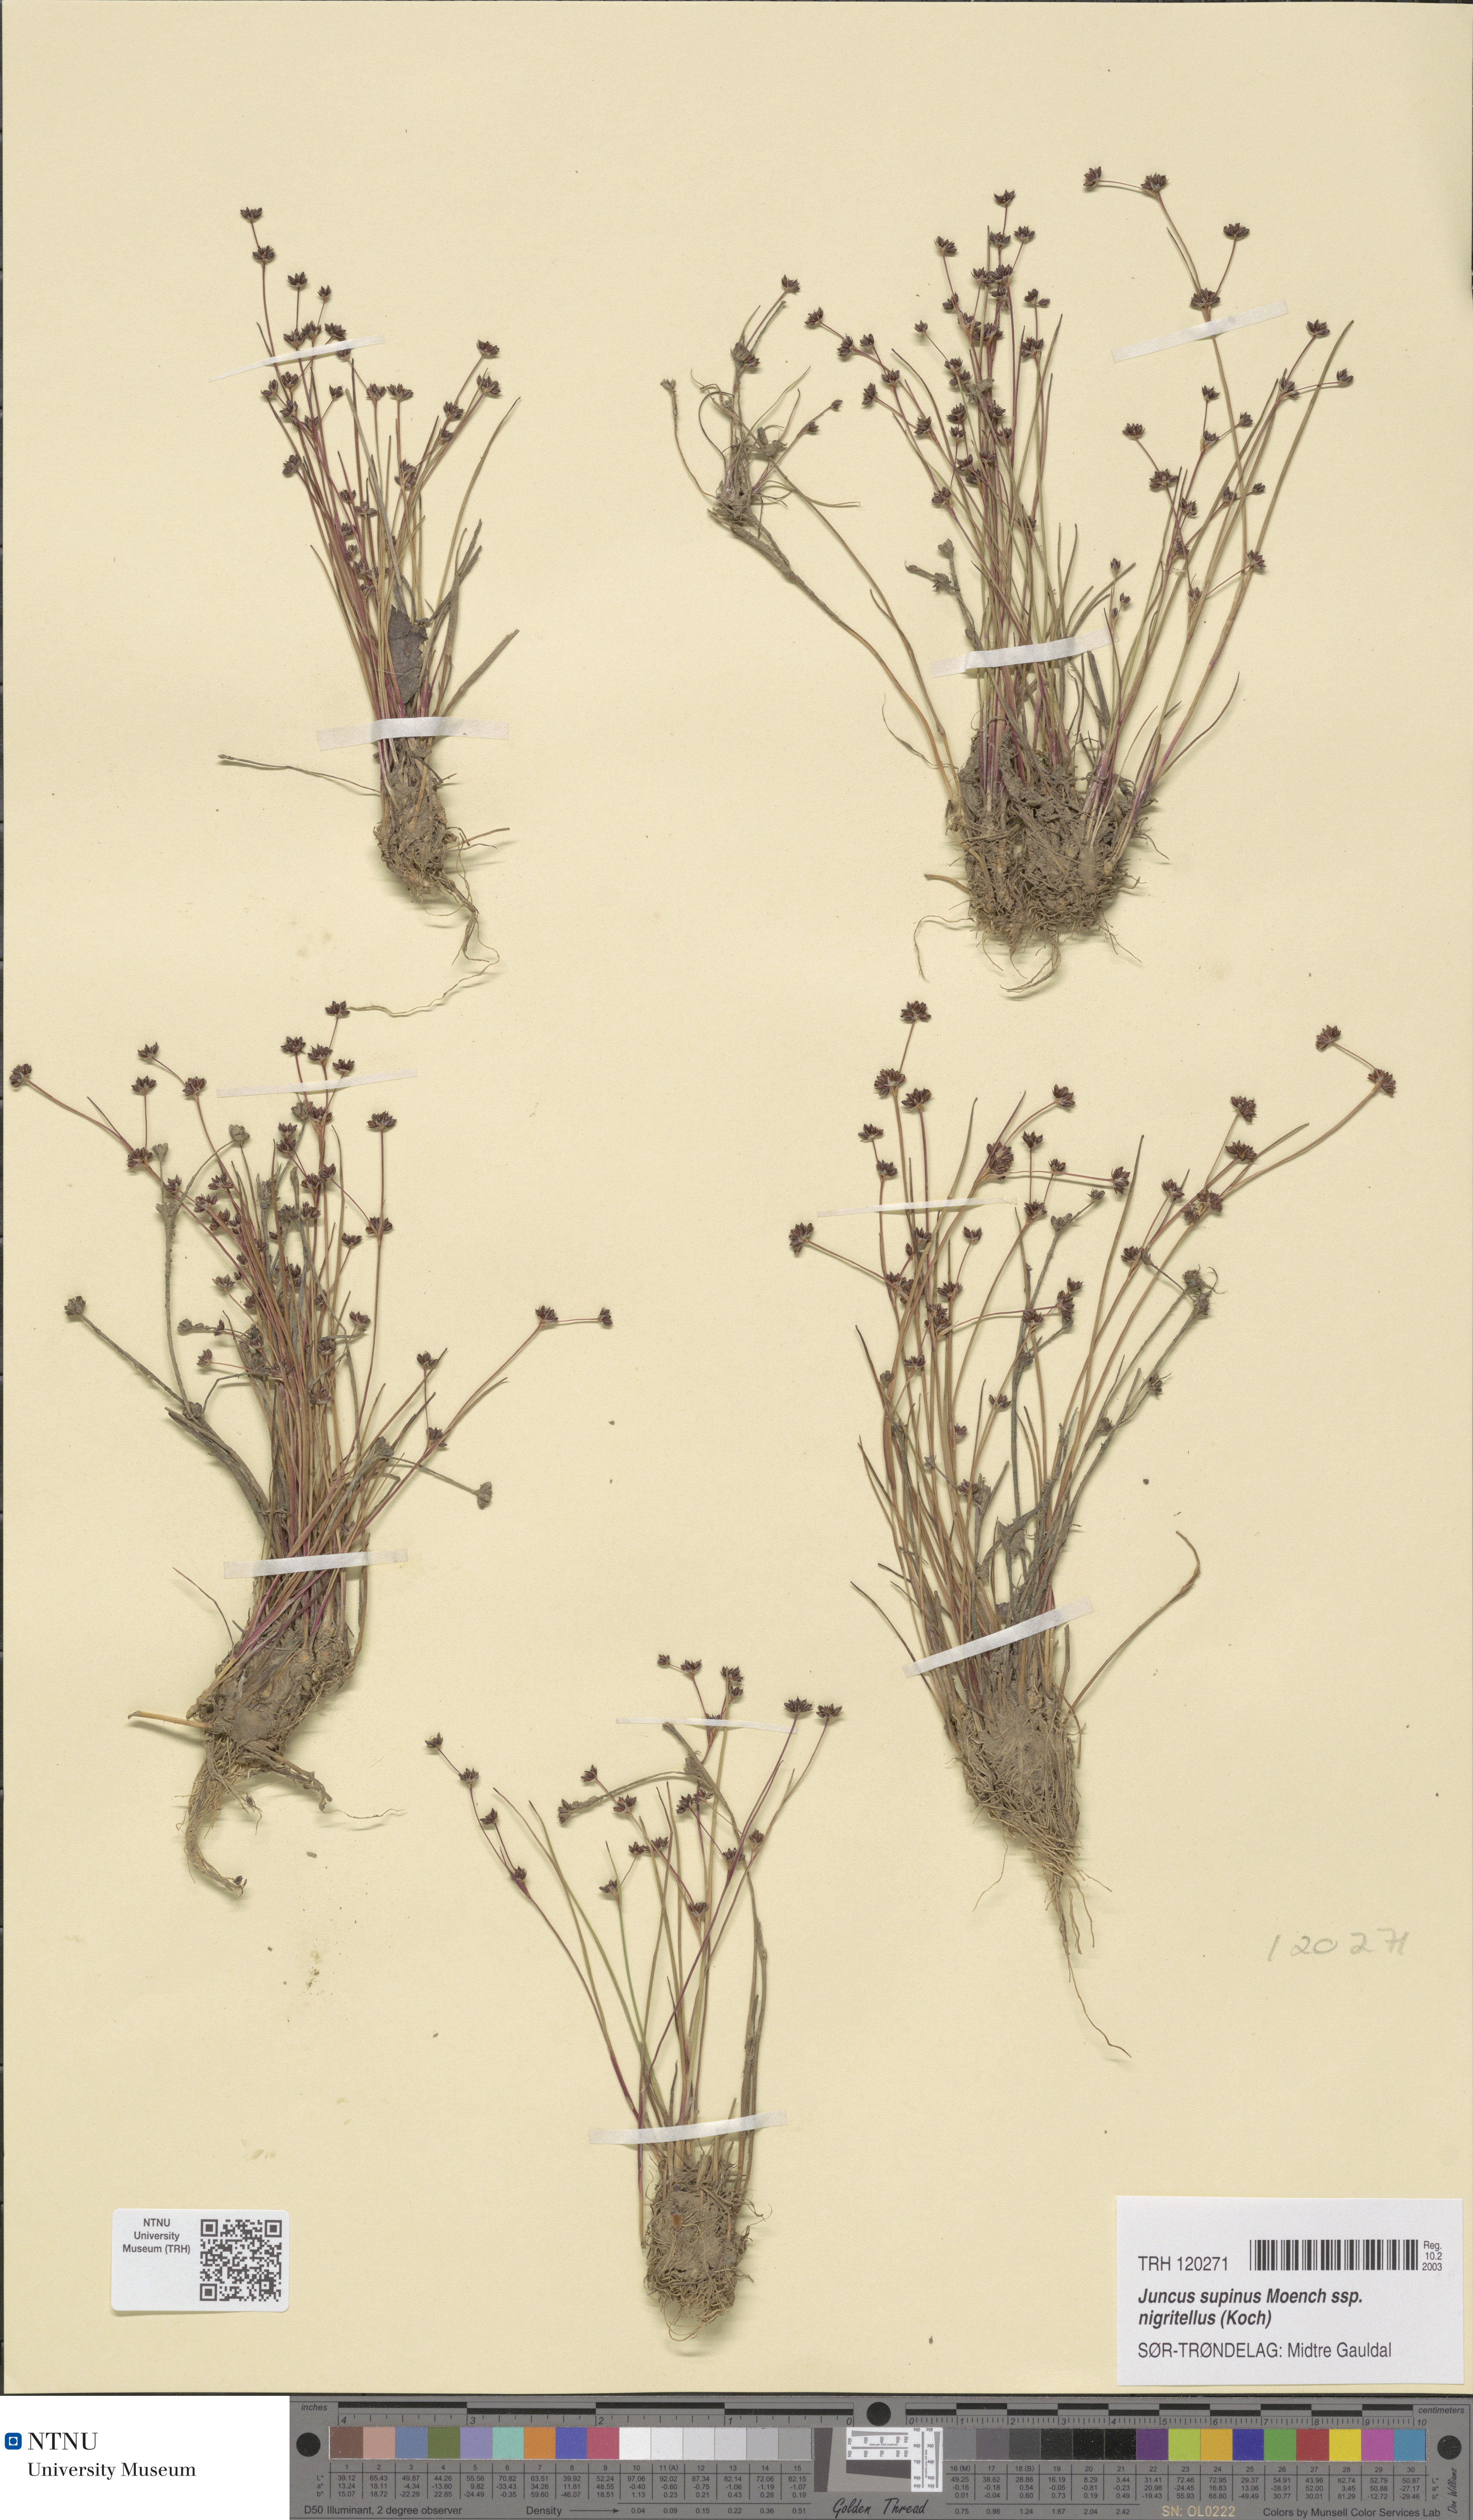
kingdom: Plantae
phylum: Tracheophyta
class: Liliopsida
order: Poales
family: Juncaceae
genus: Juncus
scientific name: Juncus bulbosus
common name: Bulbous rush
